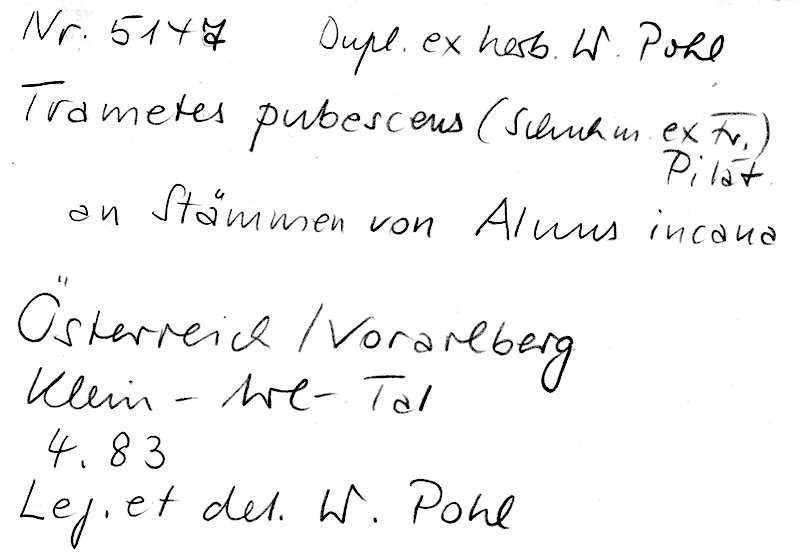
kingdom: Plantae
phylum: Tracheophyta
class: Magnoliopsida
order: Fagales
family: Betulaceae
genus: Alnus
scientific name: Alnus incana
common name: Grey alder
